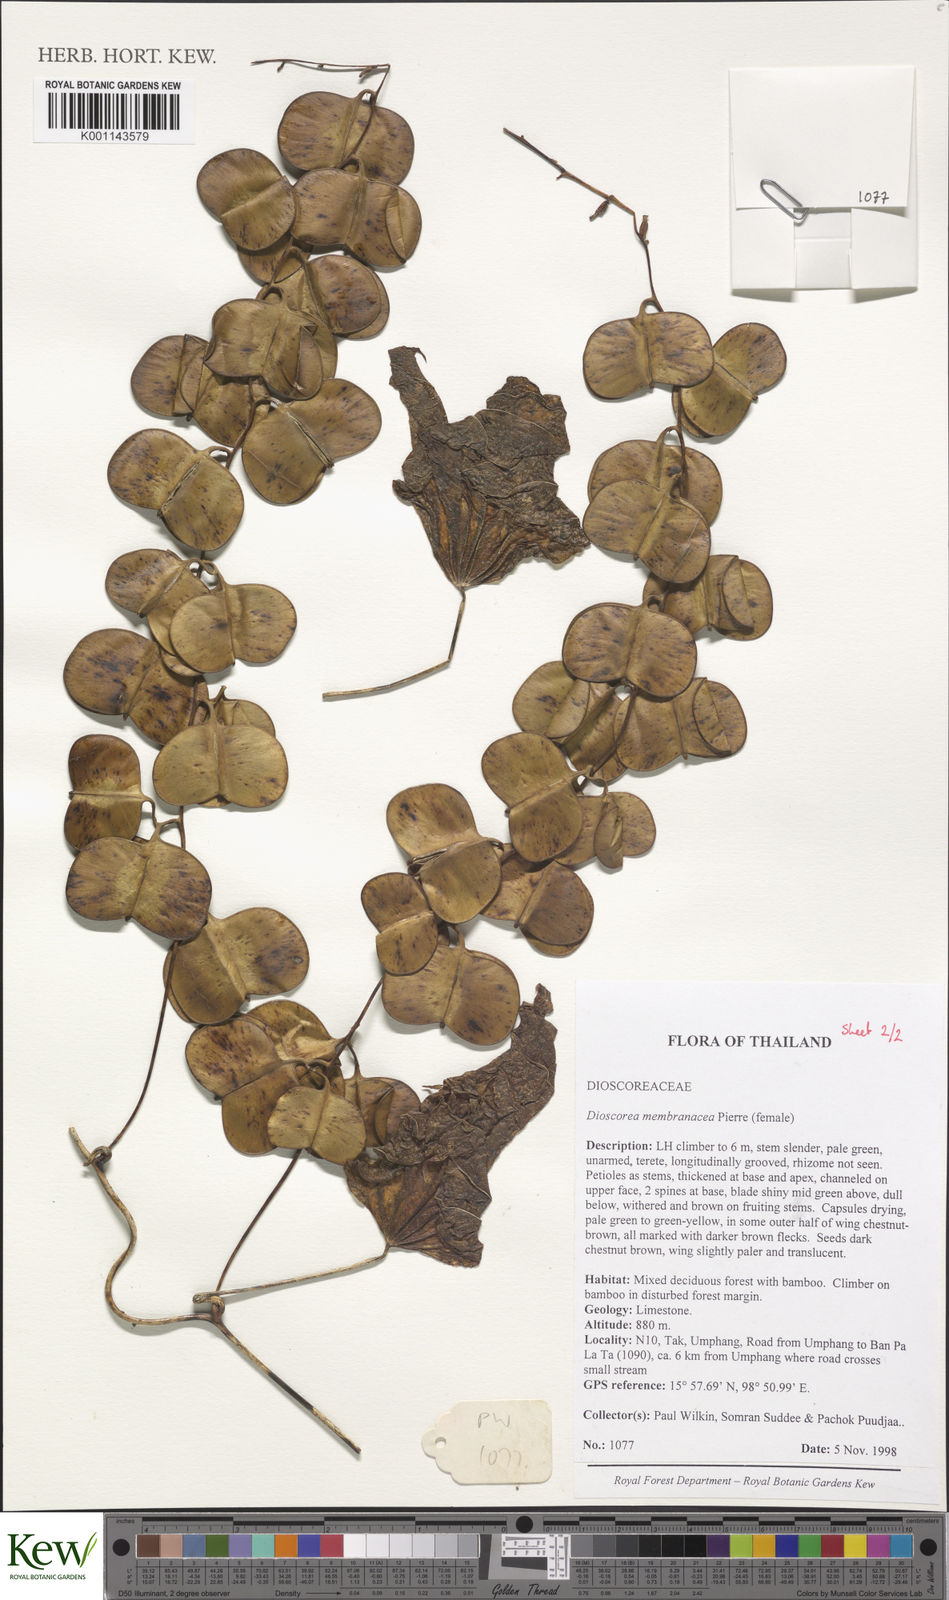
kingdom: Plantae
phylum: Tracheophyta
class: Liliopsida
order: Dioscoreales
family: Dioscoreaceae
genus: Dioscorea
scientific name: Dioscorea membranacea
